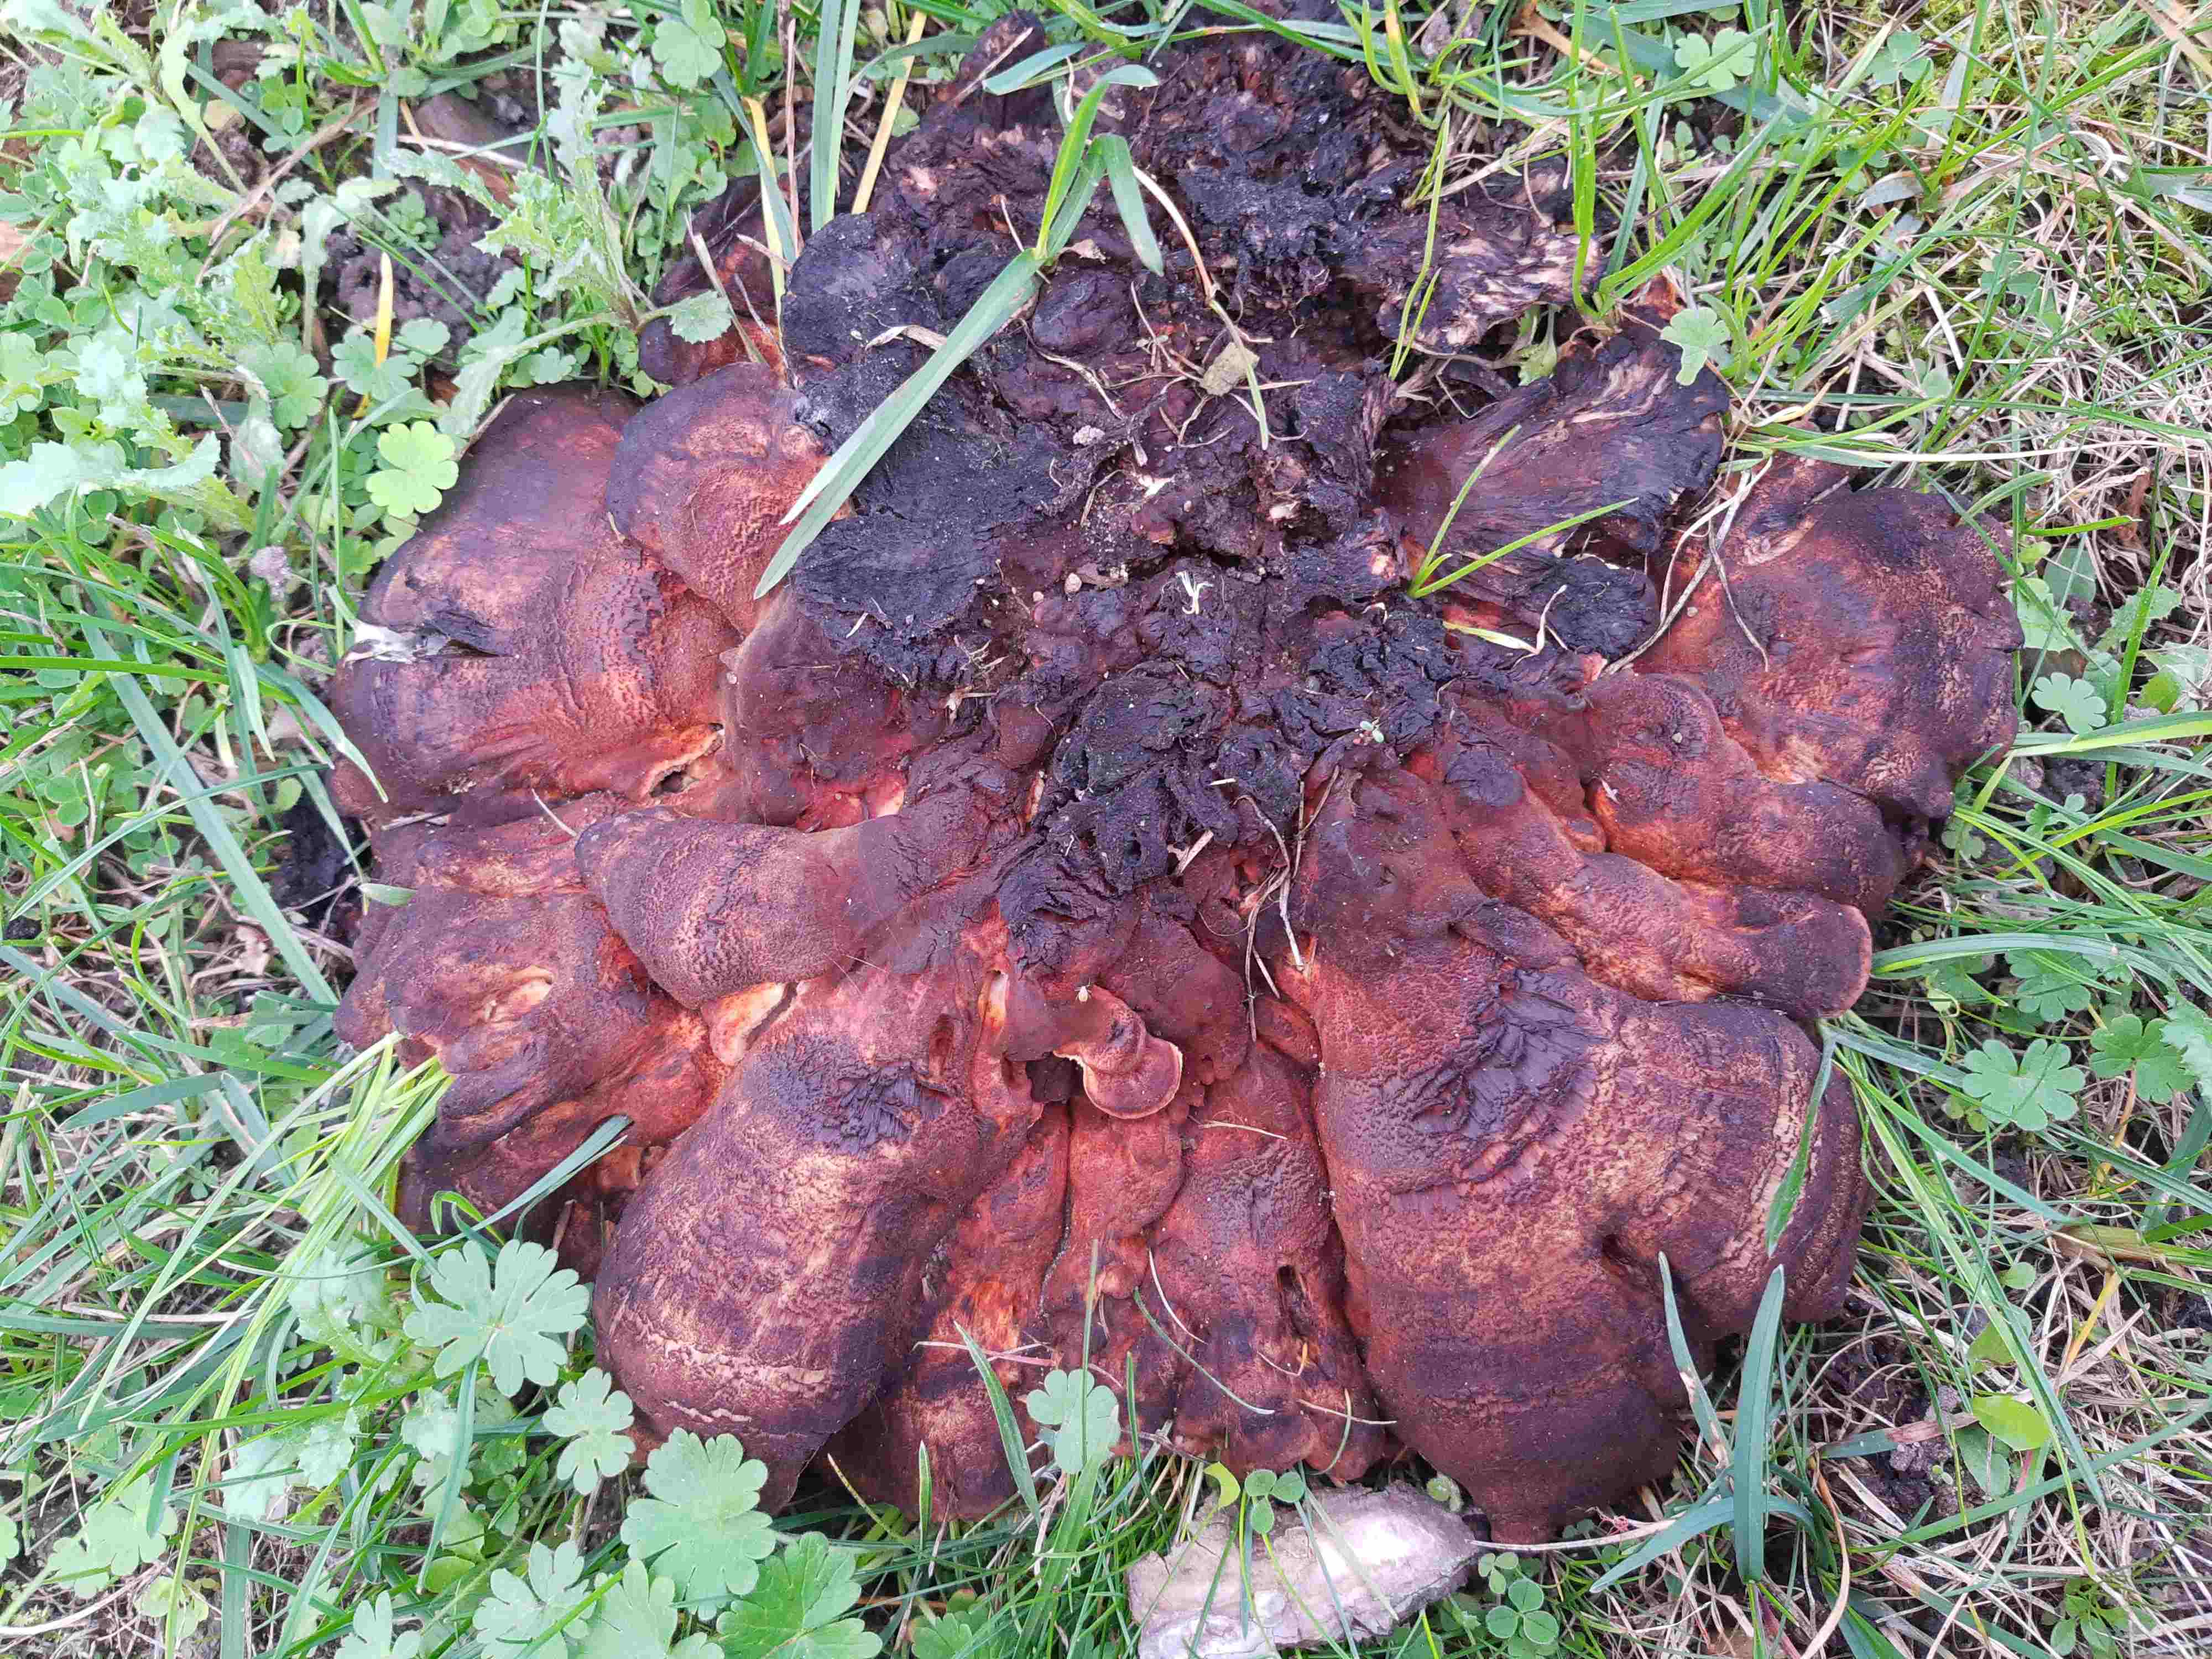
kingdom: Fungi
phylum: Basidiomycota
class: Agaricomycetes
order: Polyporales
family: Meripilaceae
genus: Meripilus
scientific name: Meripilus giganteus
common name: kæmpeporesvamp
